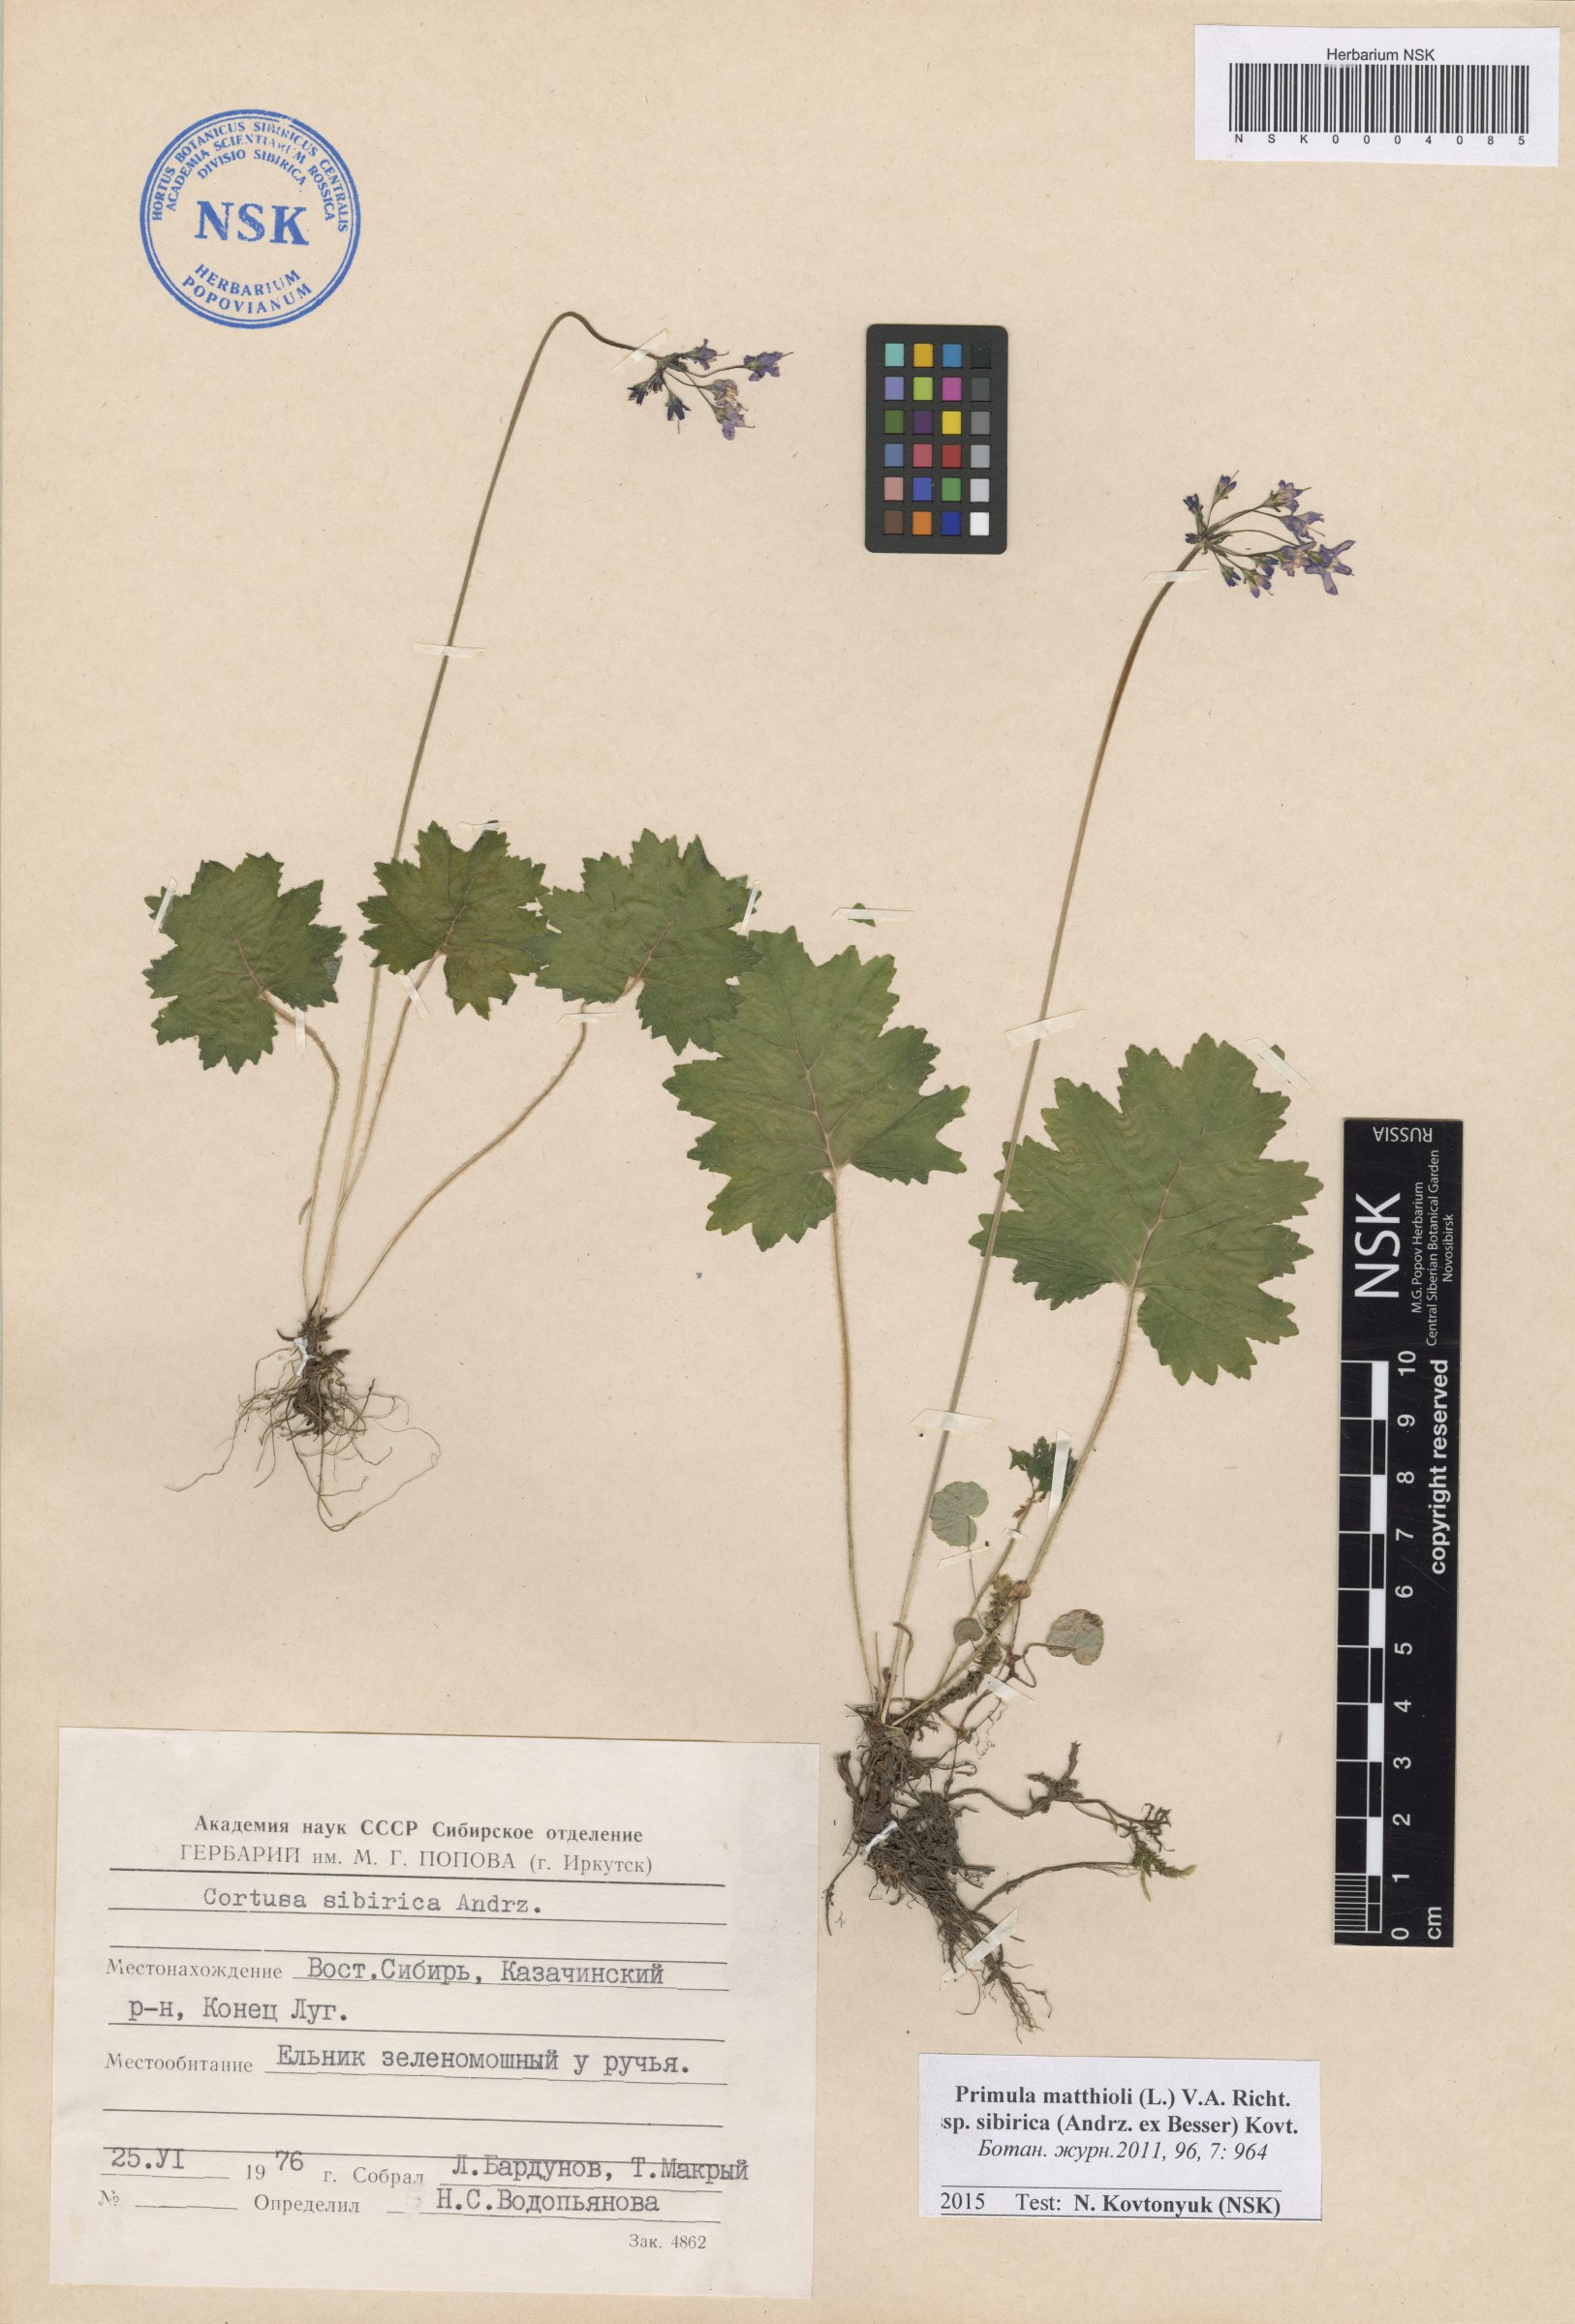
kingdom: Plantae
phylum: Tracheophyta
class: Magnoliopsida
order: Ericales
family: Primulaceae
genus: Primula
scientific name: Primula matthioli
